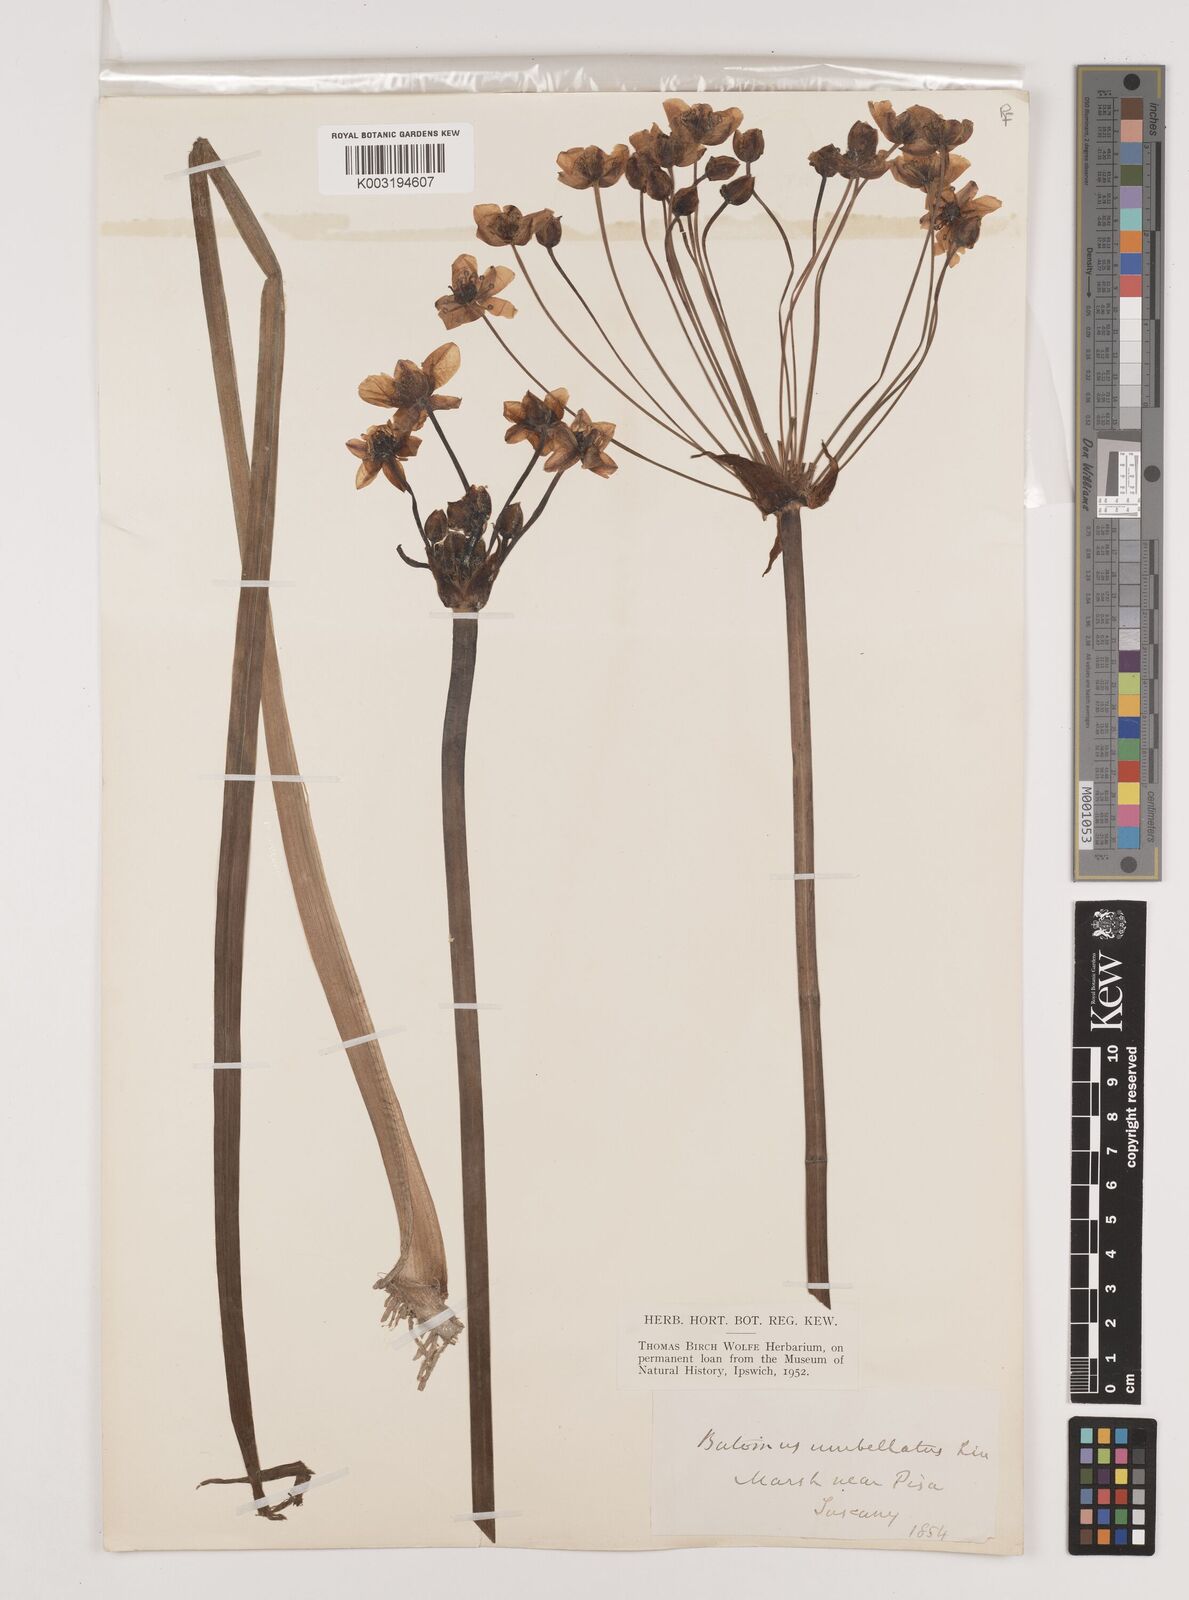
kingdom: Plantae
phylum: Tracheophyta
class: Liliopsida
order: Alismatales
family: Butomaceae
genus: Butomus
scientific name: Butomus umbellatus
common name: Flowering-rush
